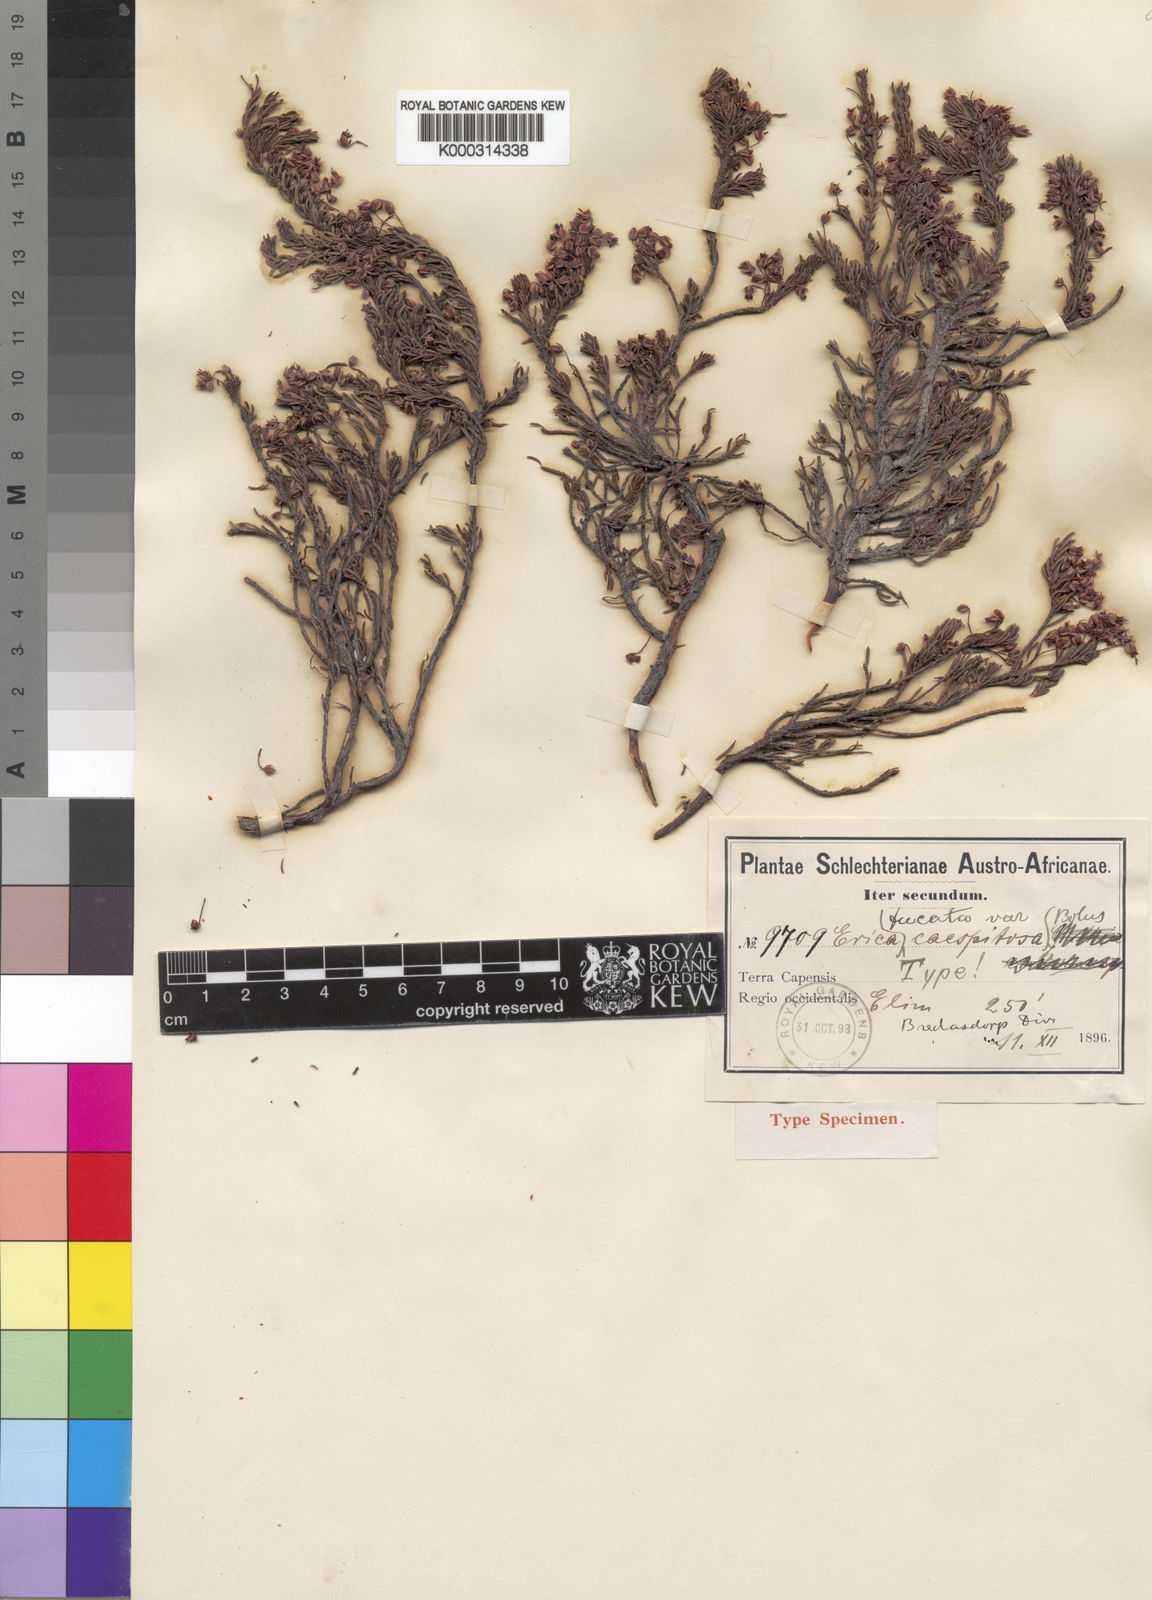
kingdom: Plantae
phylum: Tracheophyta
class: Magnoliopsida
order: Ericales
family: Ericaceae
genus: Erica
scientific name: Erica
